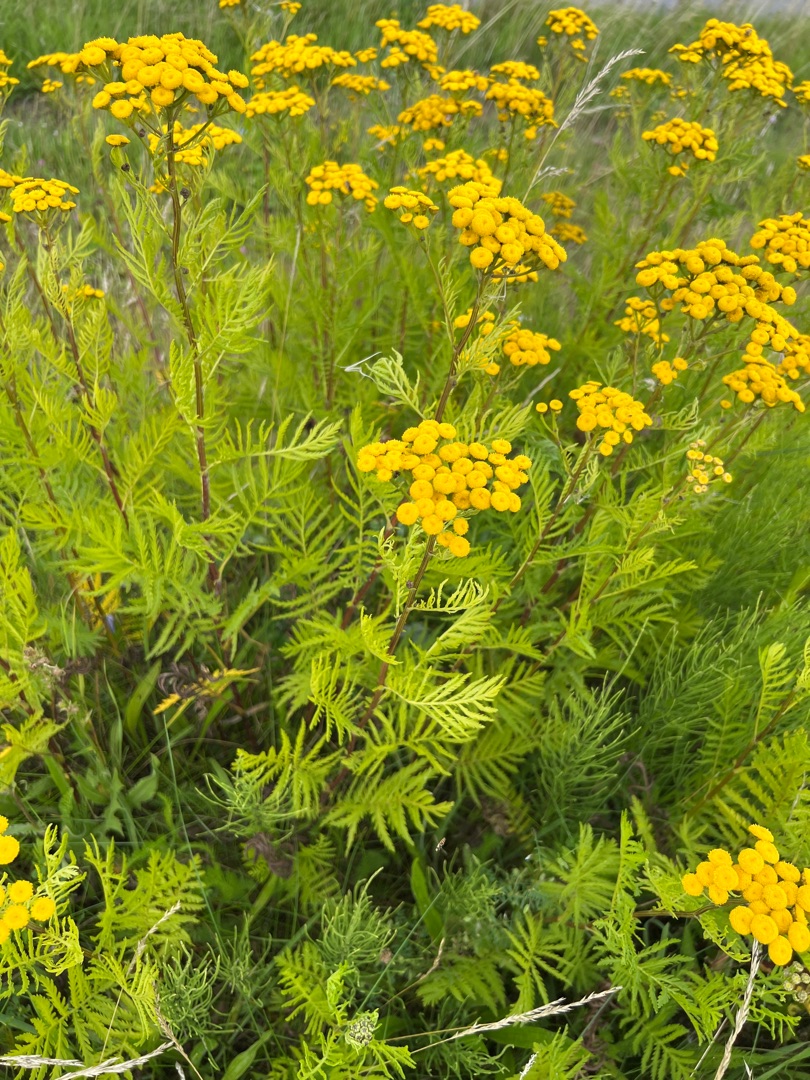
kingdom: Plantae
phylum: Tracheophyta
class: Magnoliopsida
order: Asterales
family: Asteraceae
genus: Tanacetum
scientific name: Tanacetum vulgare
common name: Rejnfan
